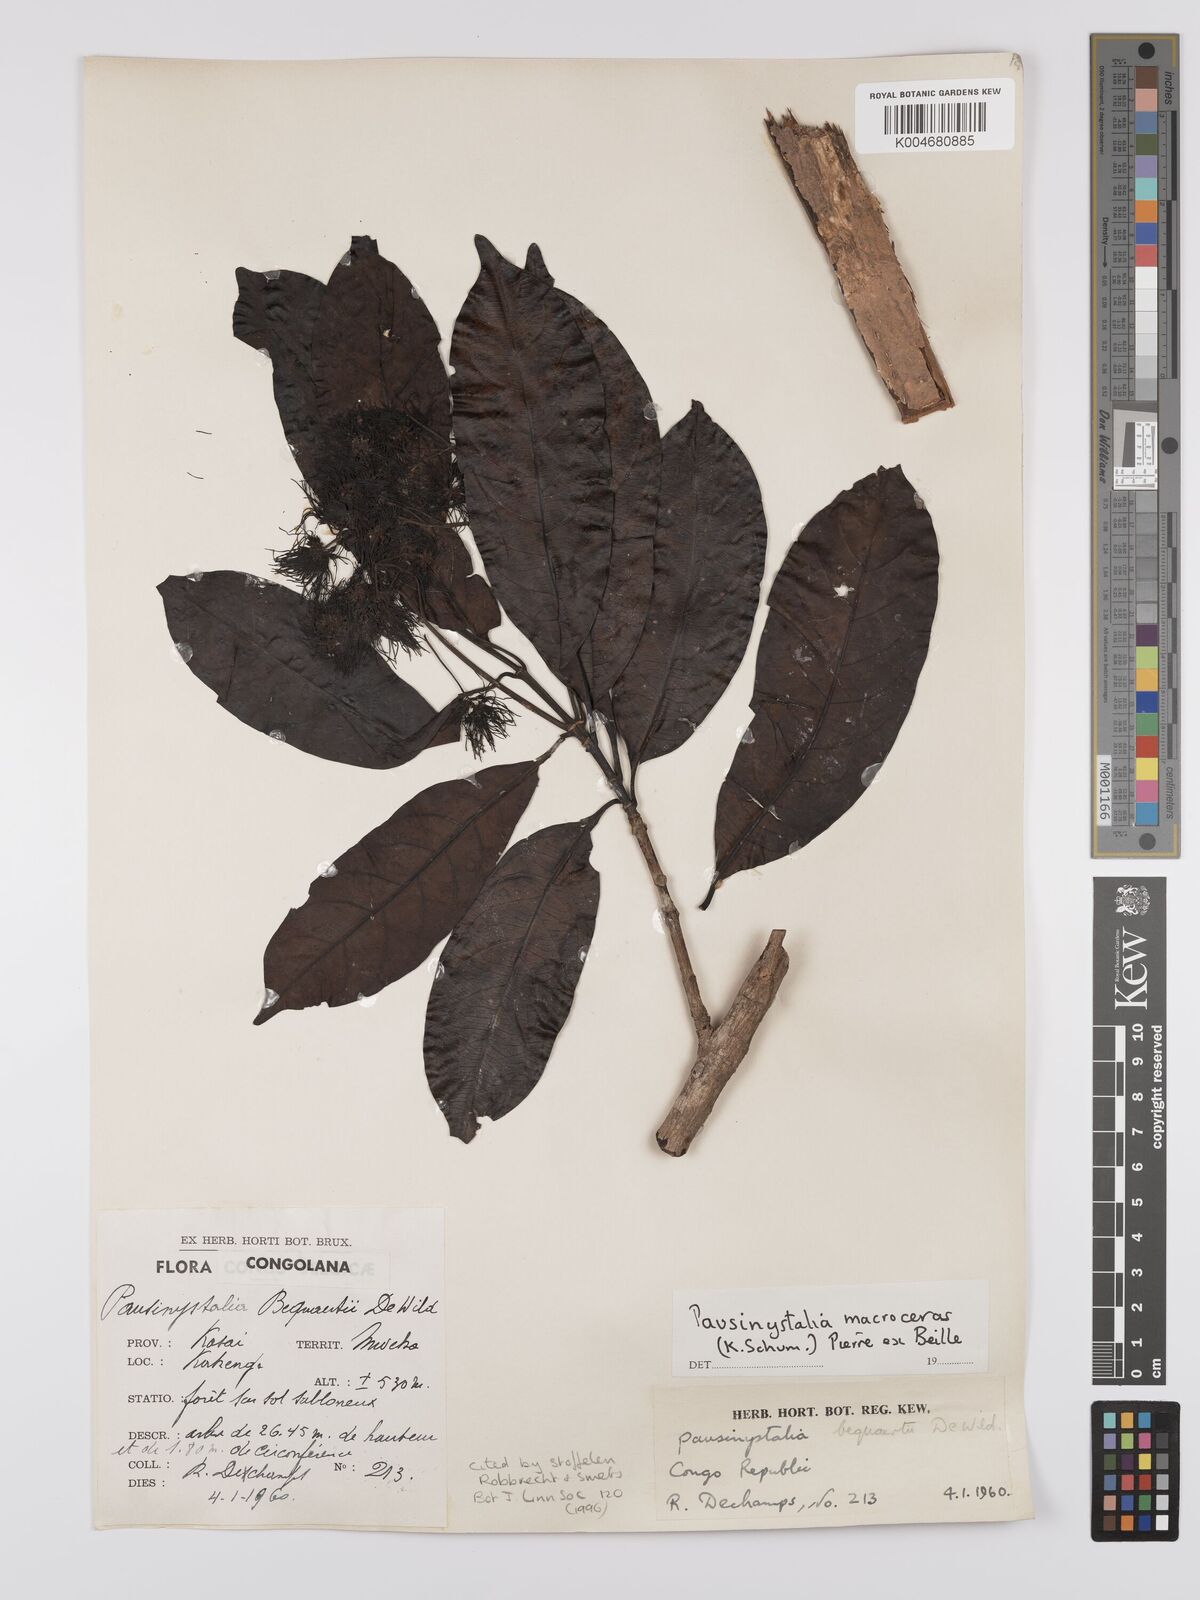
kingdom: Plantae
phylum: Tracheophyta
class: Magnoliopsida
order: Gentianales
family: Rubiaceae
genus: Corynanthe
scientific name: Corynanthe macroceras
